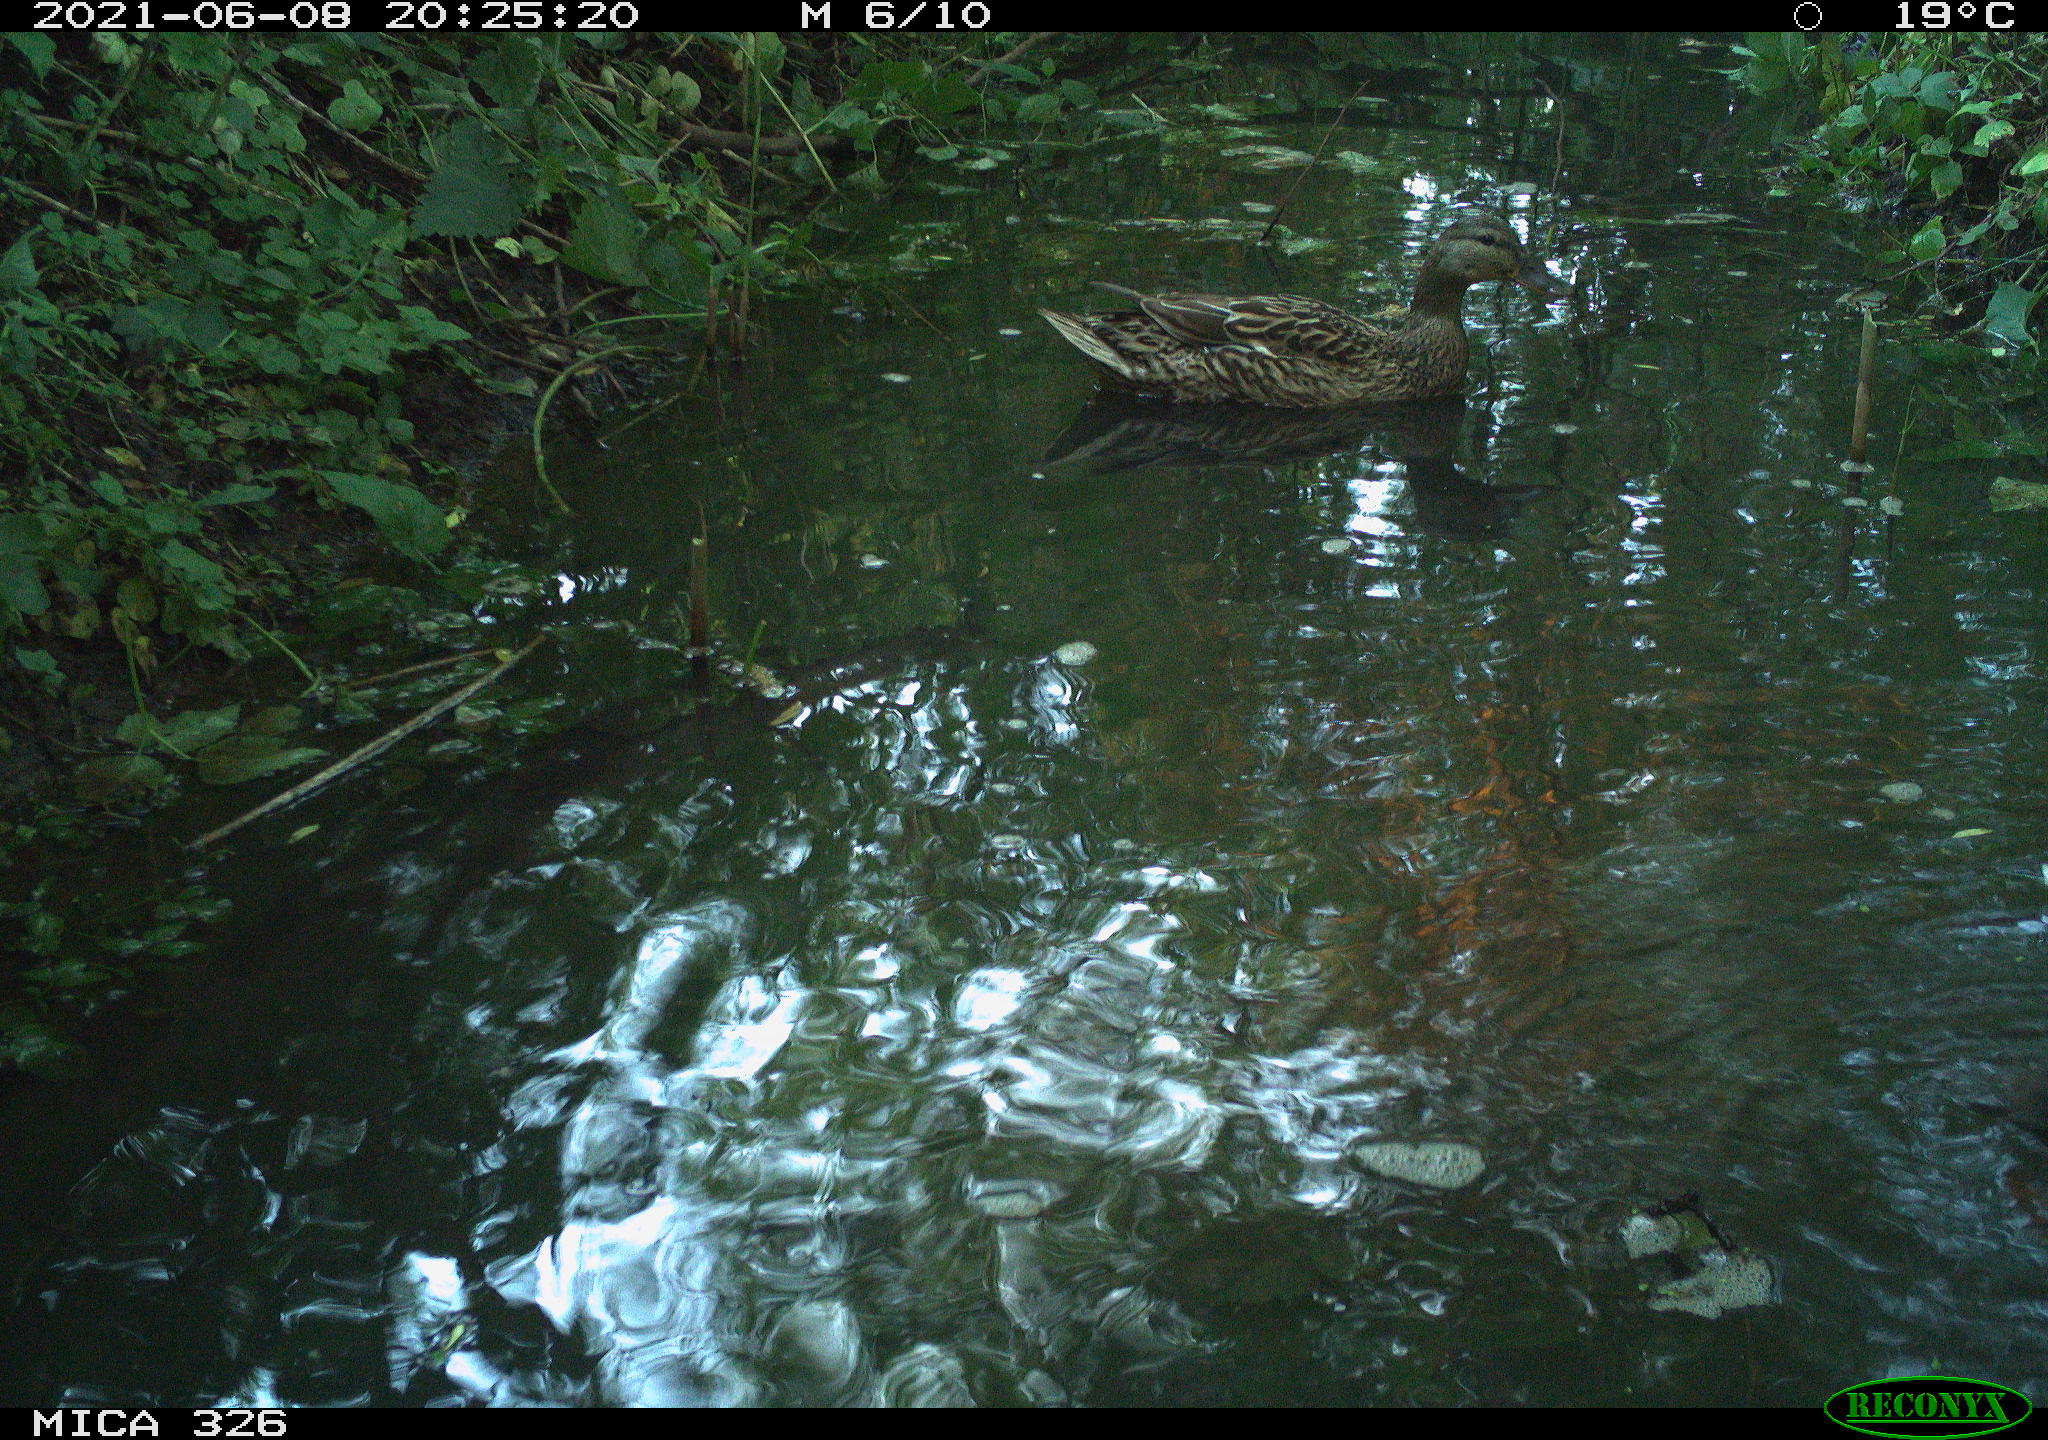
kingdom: Animalia
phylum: Chordata
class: Aves
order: Anseriformes
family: Anatidae
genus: Anas
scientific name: Anas platyrhynchos
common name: Mallard
